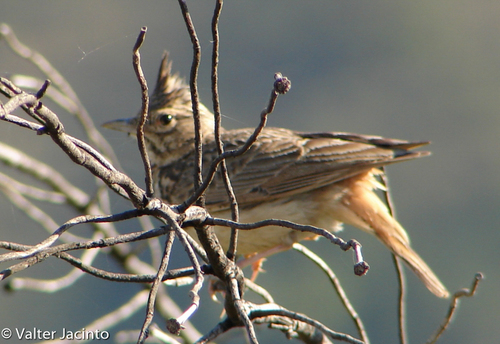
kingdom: Animalia
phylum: Chordata
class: Aves
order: Passeriformes
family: Alaudidae
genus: Galerida
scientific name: Galerida theklae
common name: Thekla lark
